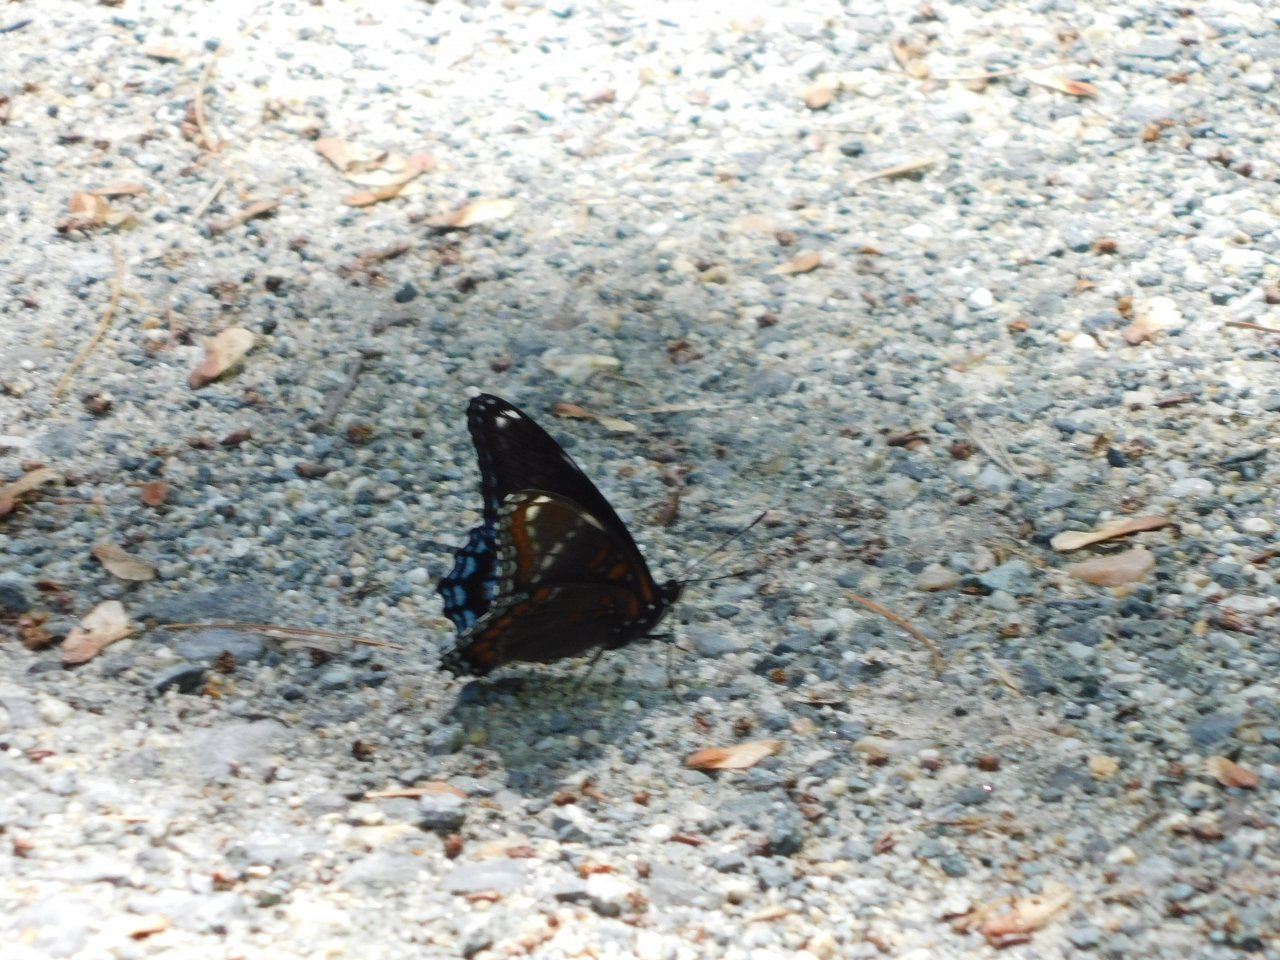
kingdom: Animalia
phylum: Arthropoda
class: Insecta
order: Lepidoptera
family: Nymphalidae
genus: Limenitis
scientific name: Limenitis
